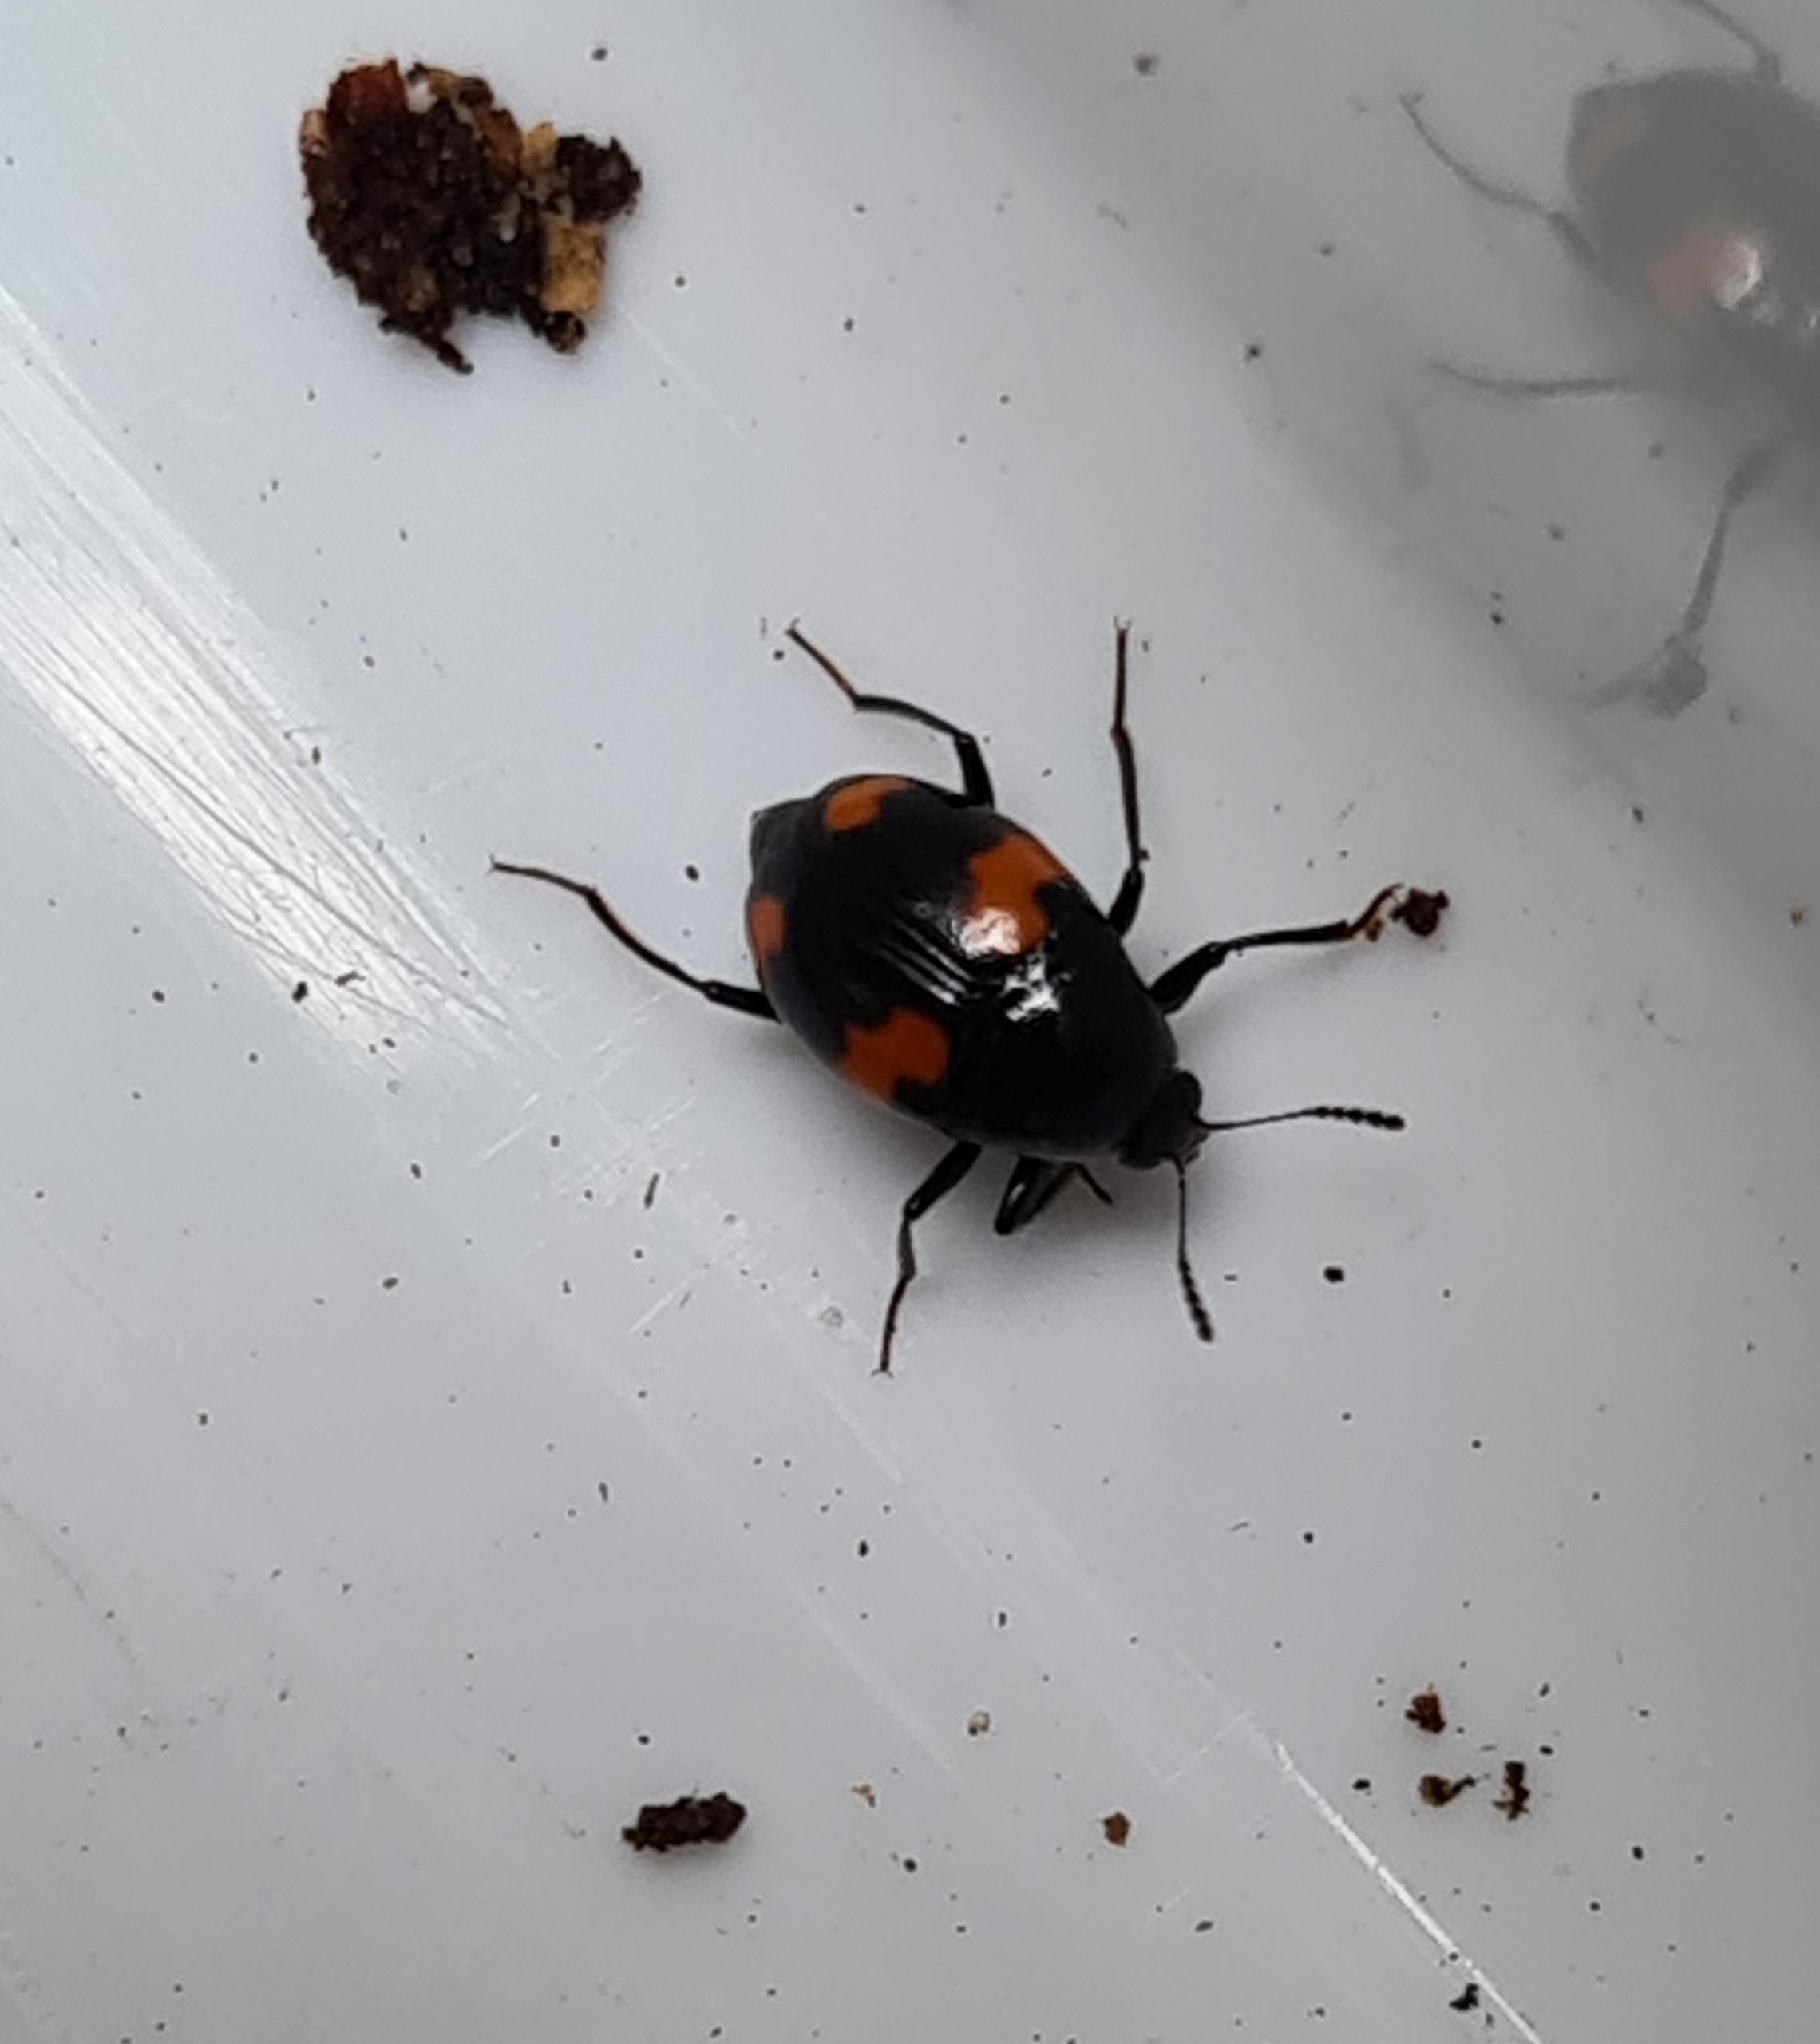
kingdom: Animalia
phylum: Arthropoda
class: Insecta
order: Coleoptera
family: Staphylinidae
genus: Scaphidium
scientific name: Scaphidium quadrimaculatum
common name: Dråberovbille
